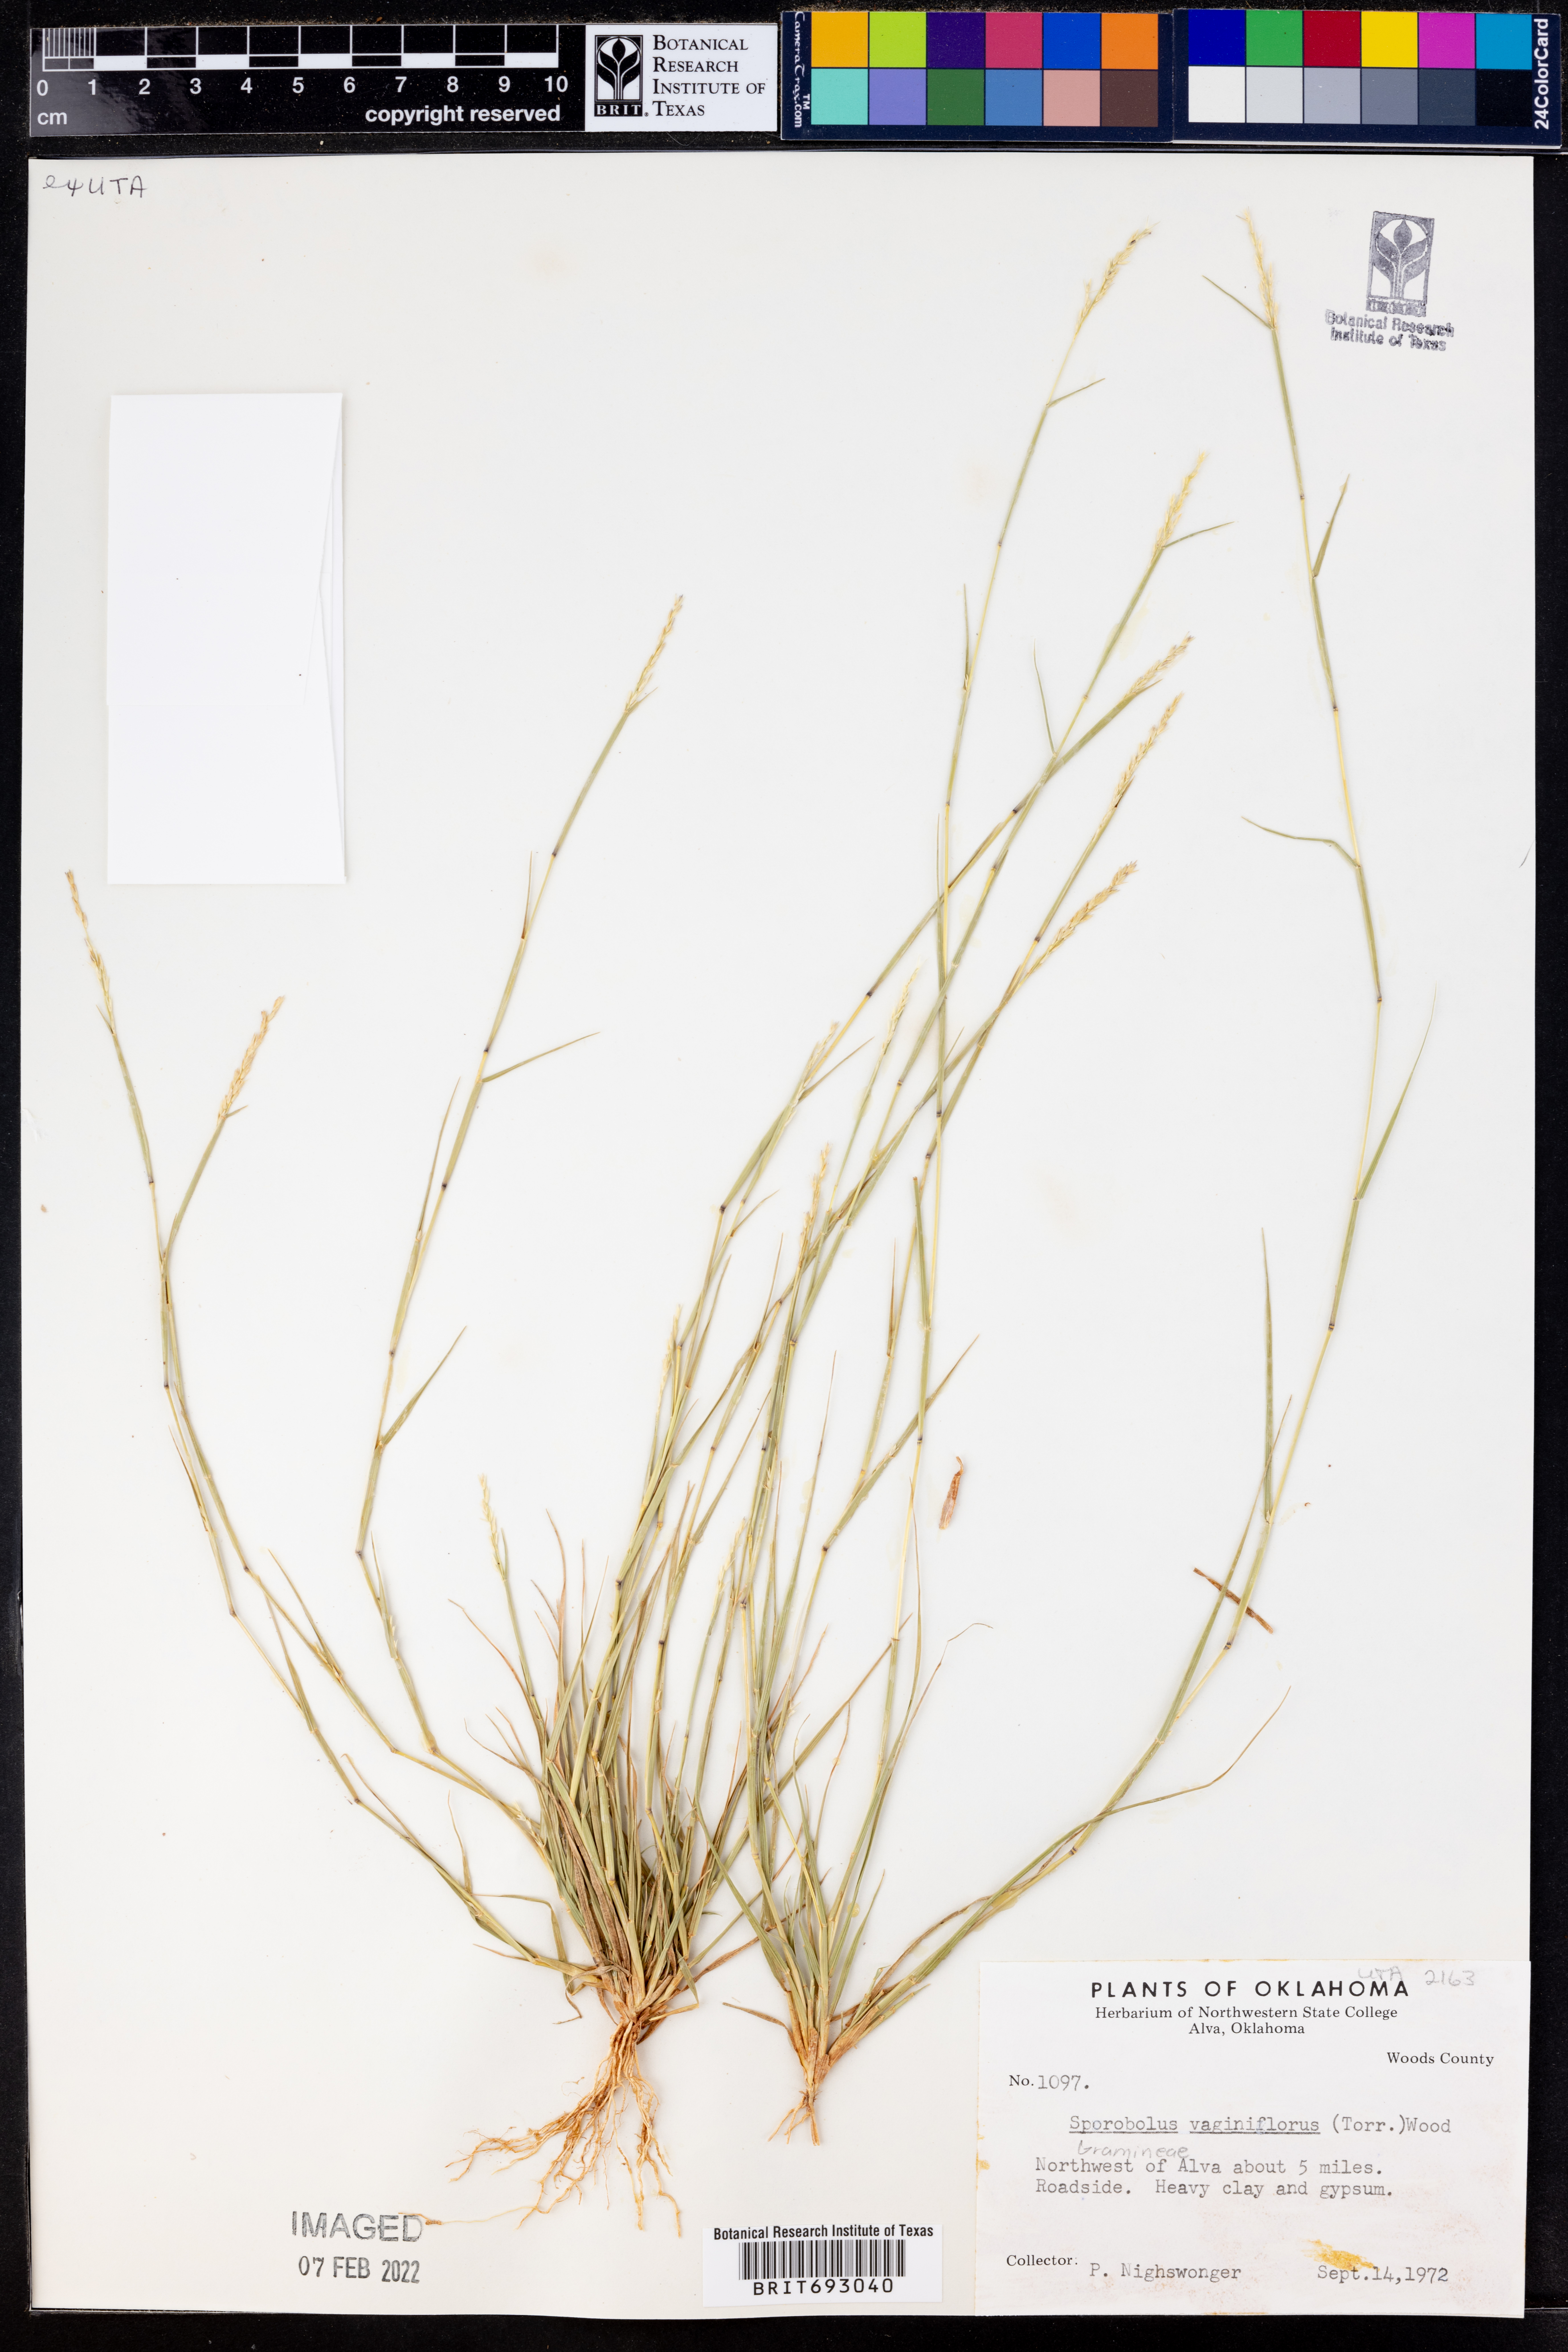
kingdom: Plantae
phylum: Tracheophyta
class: Liliopsida
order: Poales
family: Poaceae
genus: Sporobolus
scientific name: Sporobolus vaginiflorus
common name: Poverty dropseed
